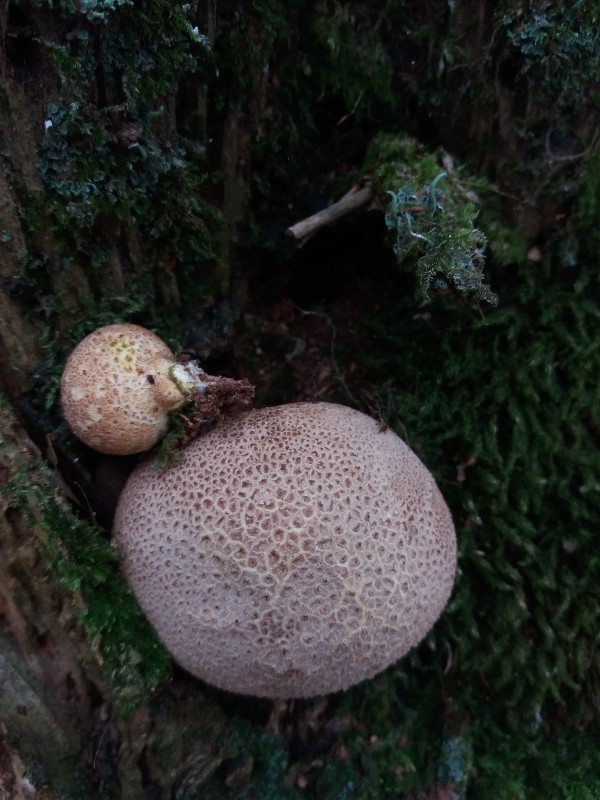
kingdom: Fungi
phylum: Basidiomycota
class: Agaricomycetes
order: Boletales
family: Sclerodermataceae
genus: Scleroderma
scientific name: Scleroderma citrinum
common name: almindelig bruskbold
